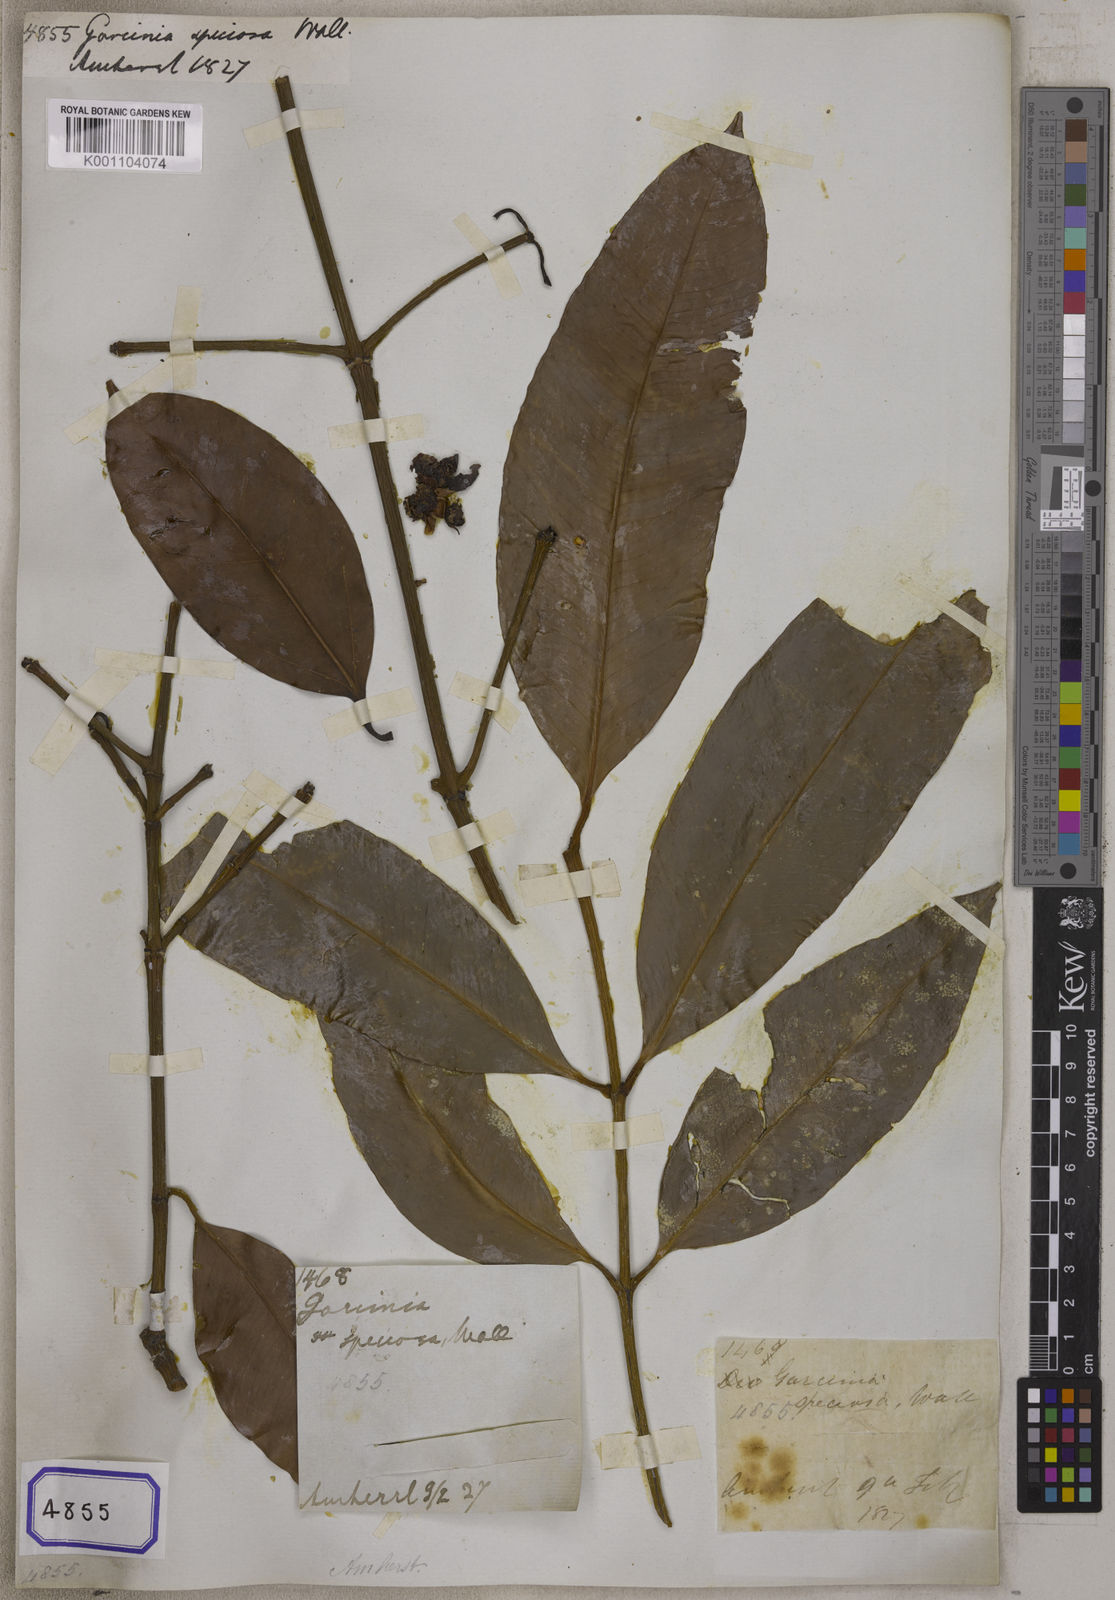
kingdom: Plantae
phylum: Tracheophyta
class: Magnoliopsida
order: Malpighiales
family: Clusiaceae
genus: Garcinia
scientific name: Garcinia celebica
